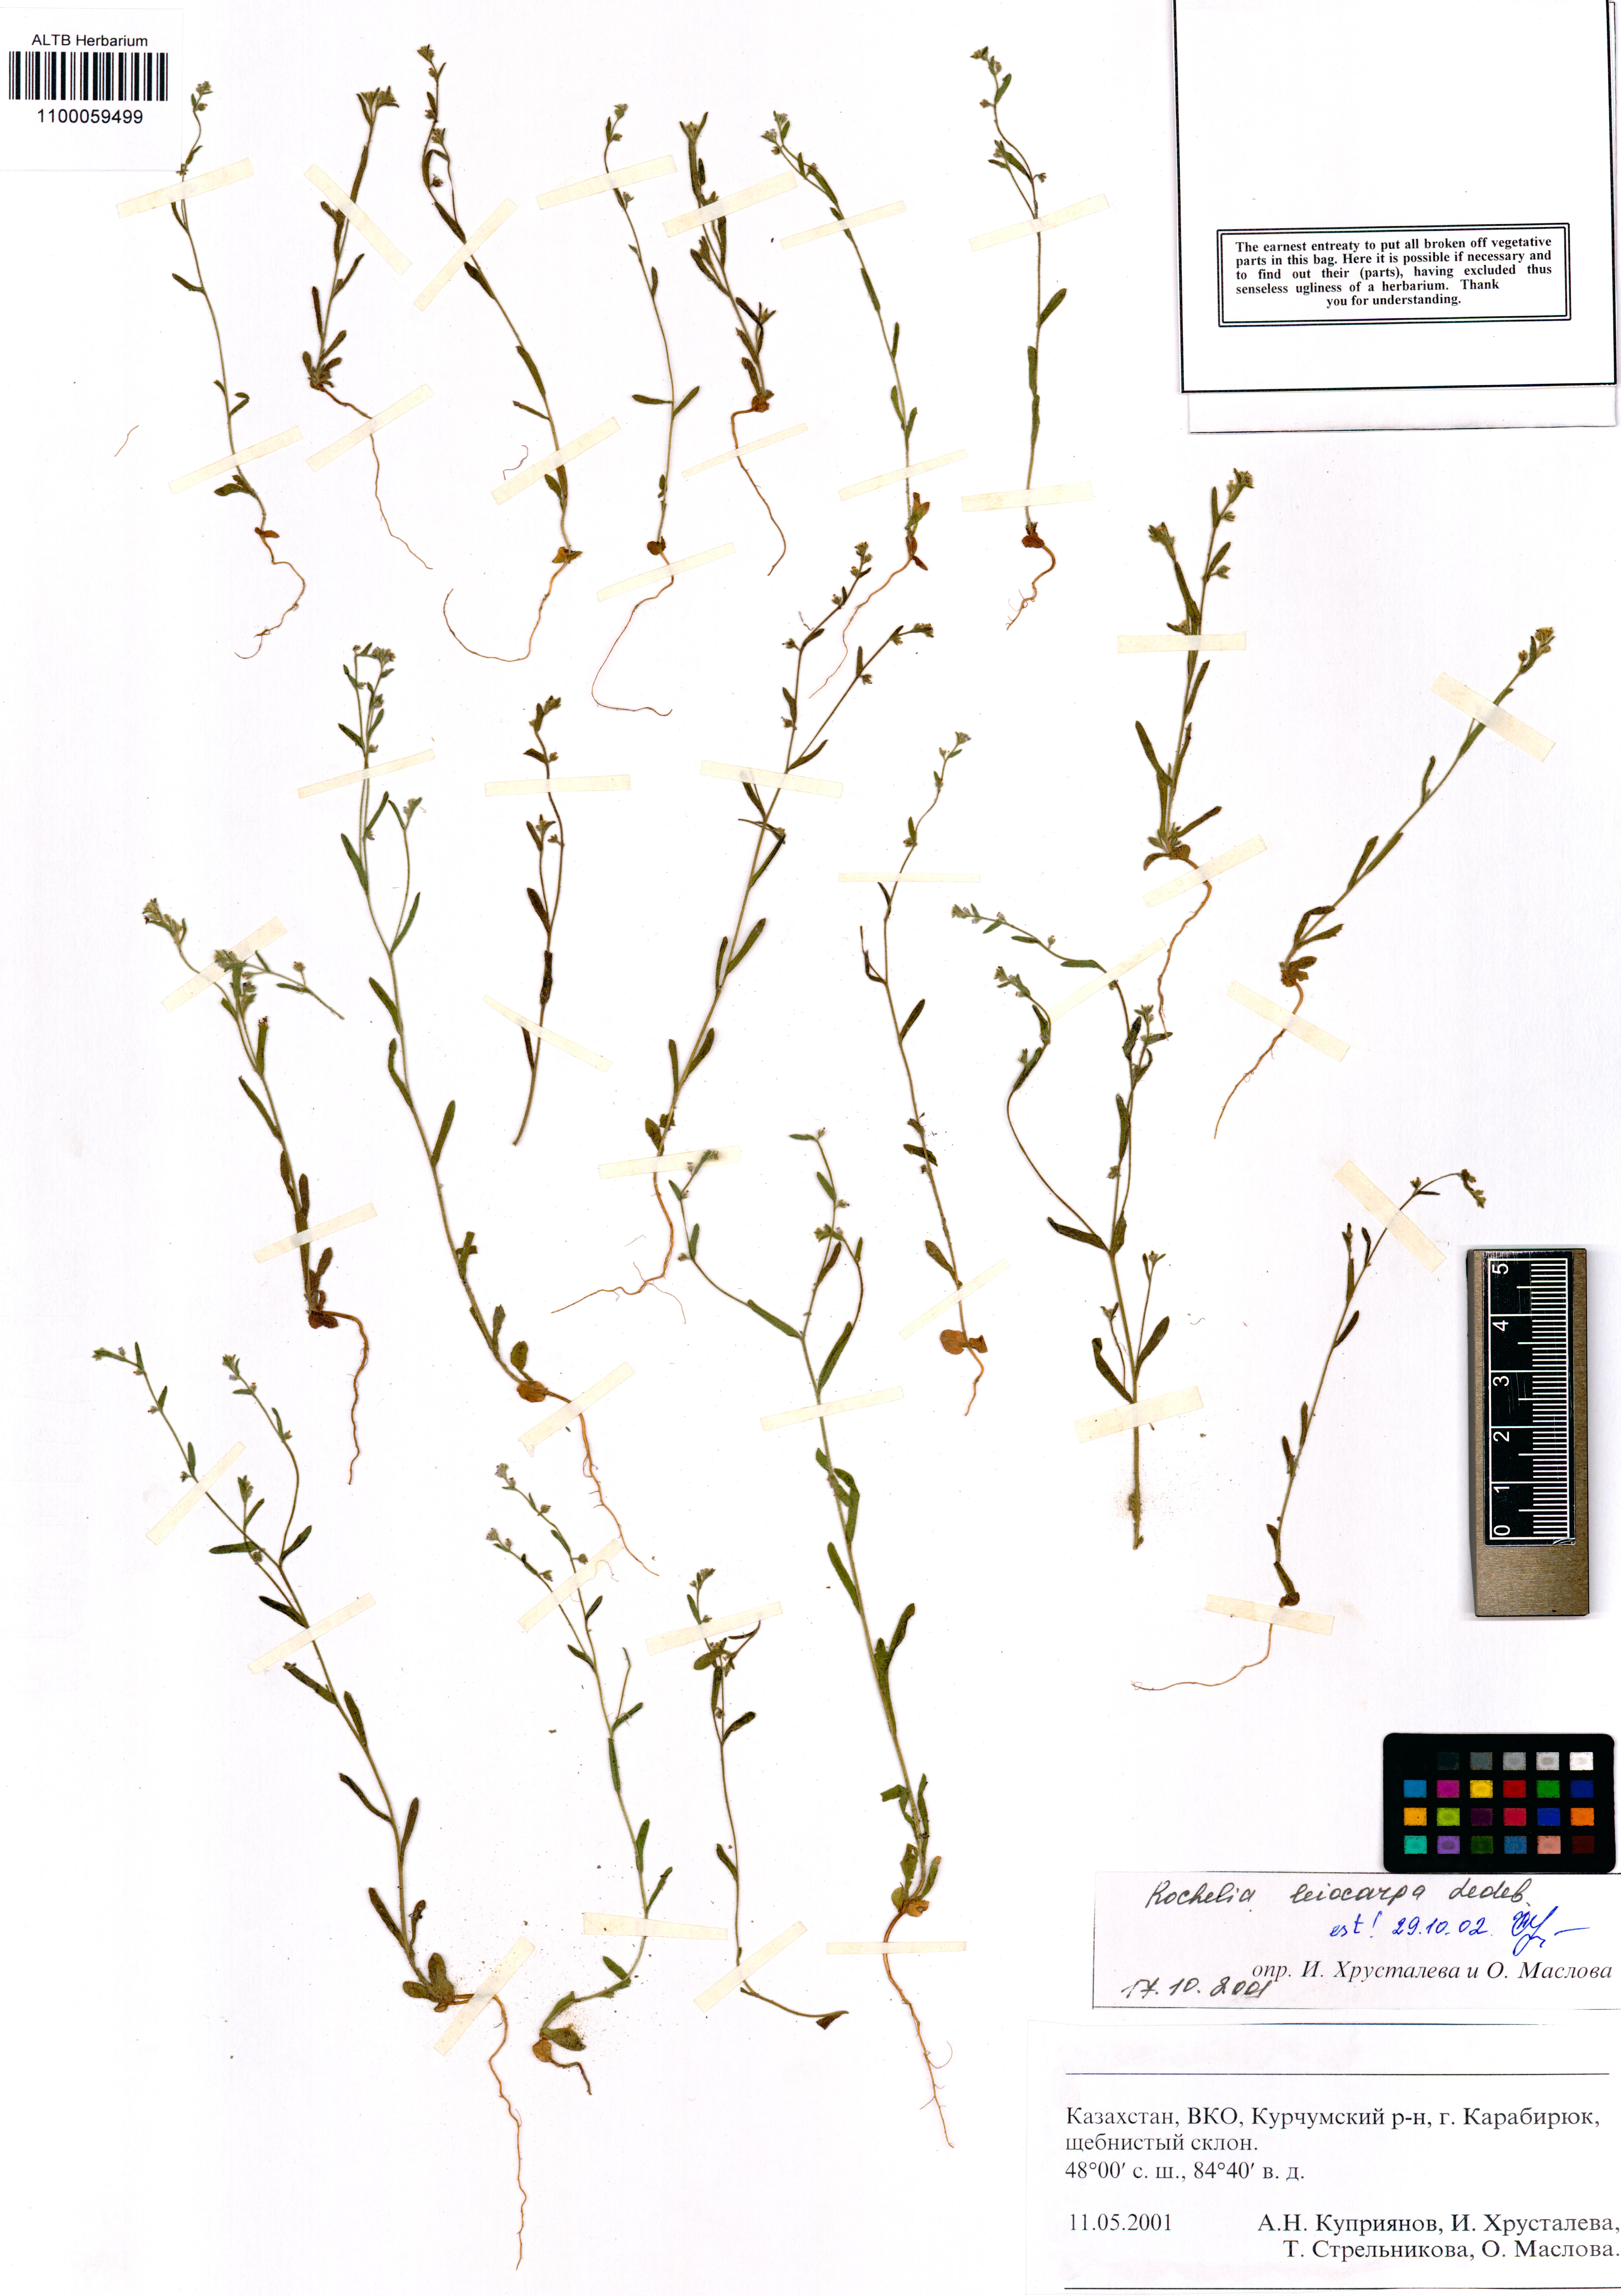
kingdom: Plantae
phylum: Tracheophyta
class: Magnoliopsida
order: Boraginales
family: Boraginaceae
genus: Rochelia
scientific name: Rochelia leiocarpa
